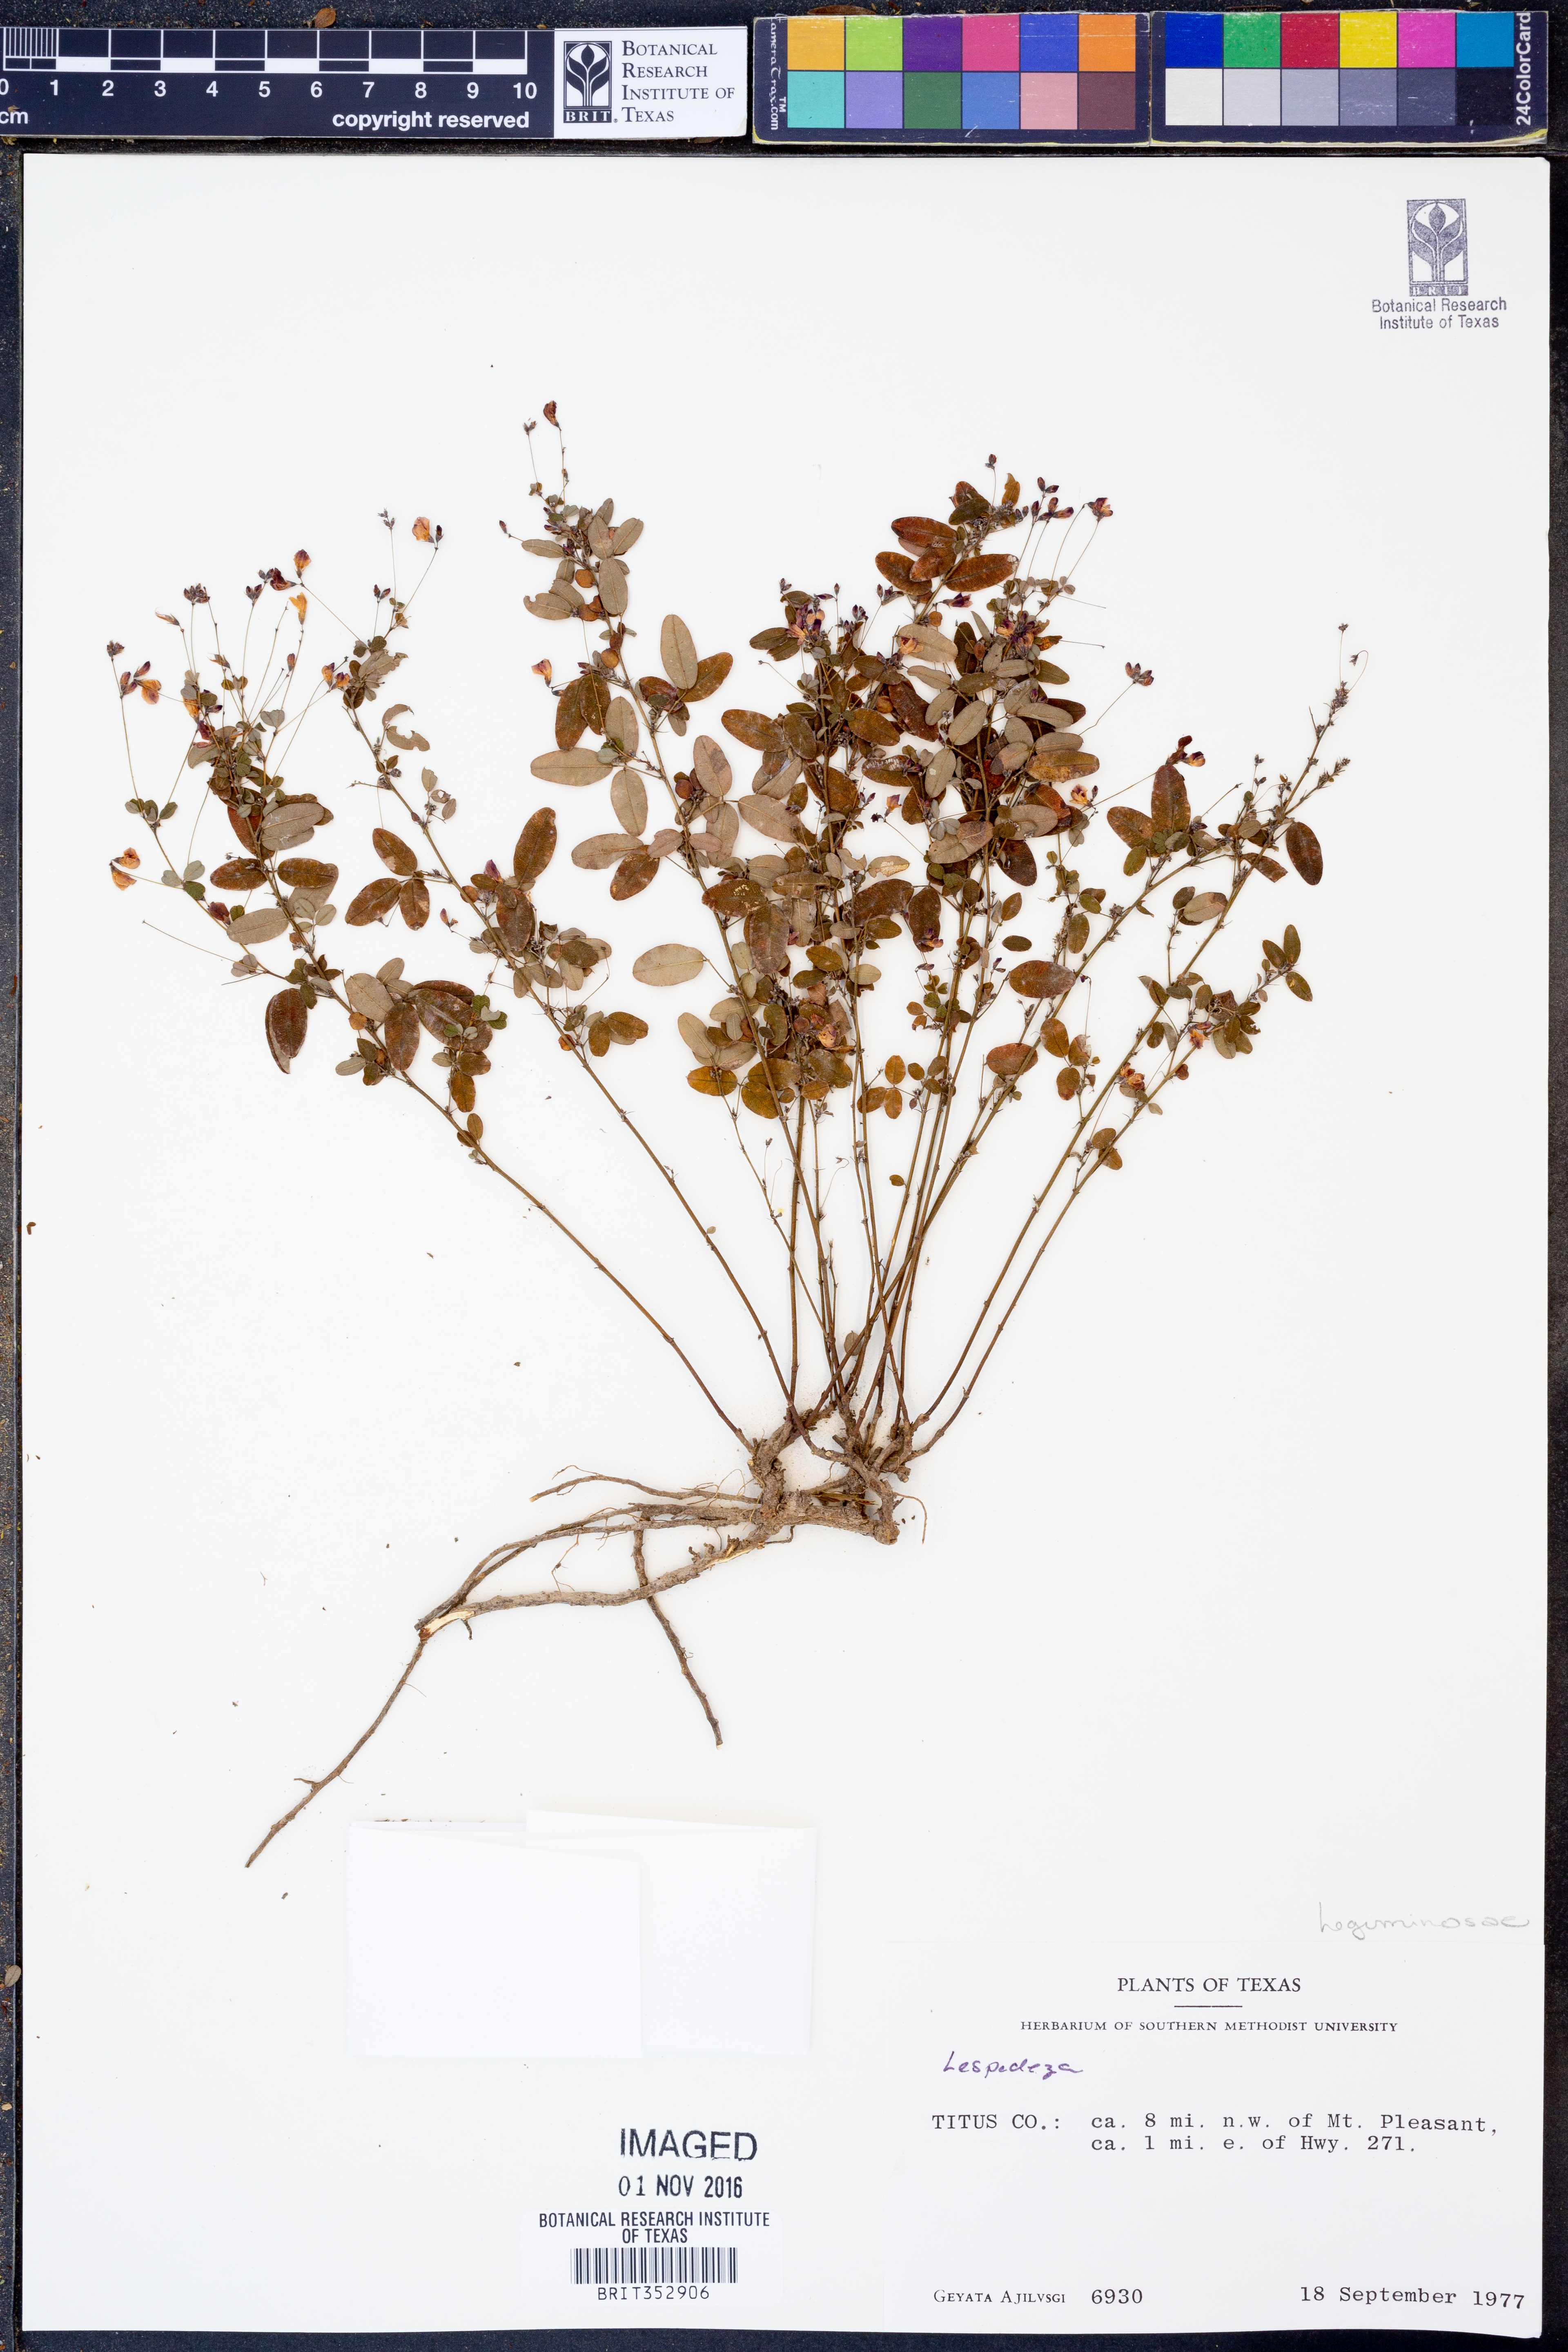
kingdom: Plantae
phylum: Tracheophyta
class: Magnoliopsida
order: Fabales
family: Fabaceae
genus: Lespedeza
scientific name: Lespedeza
